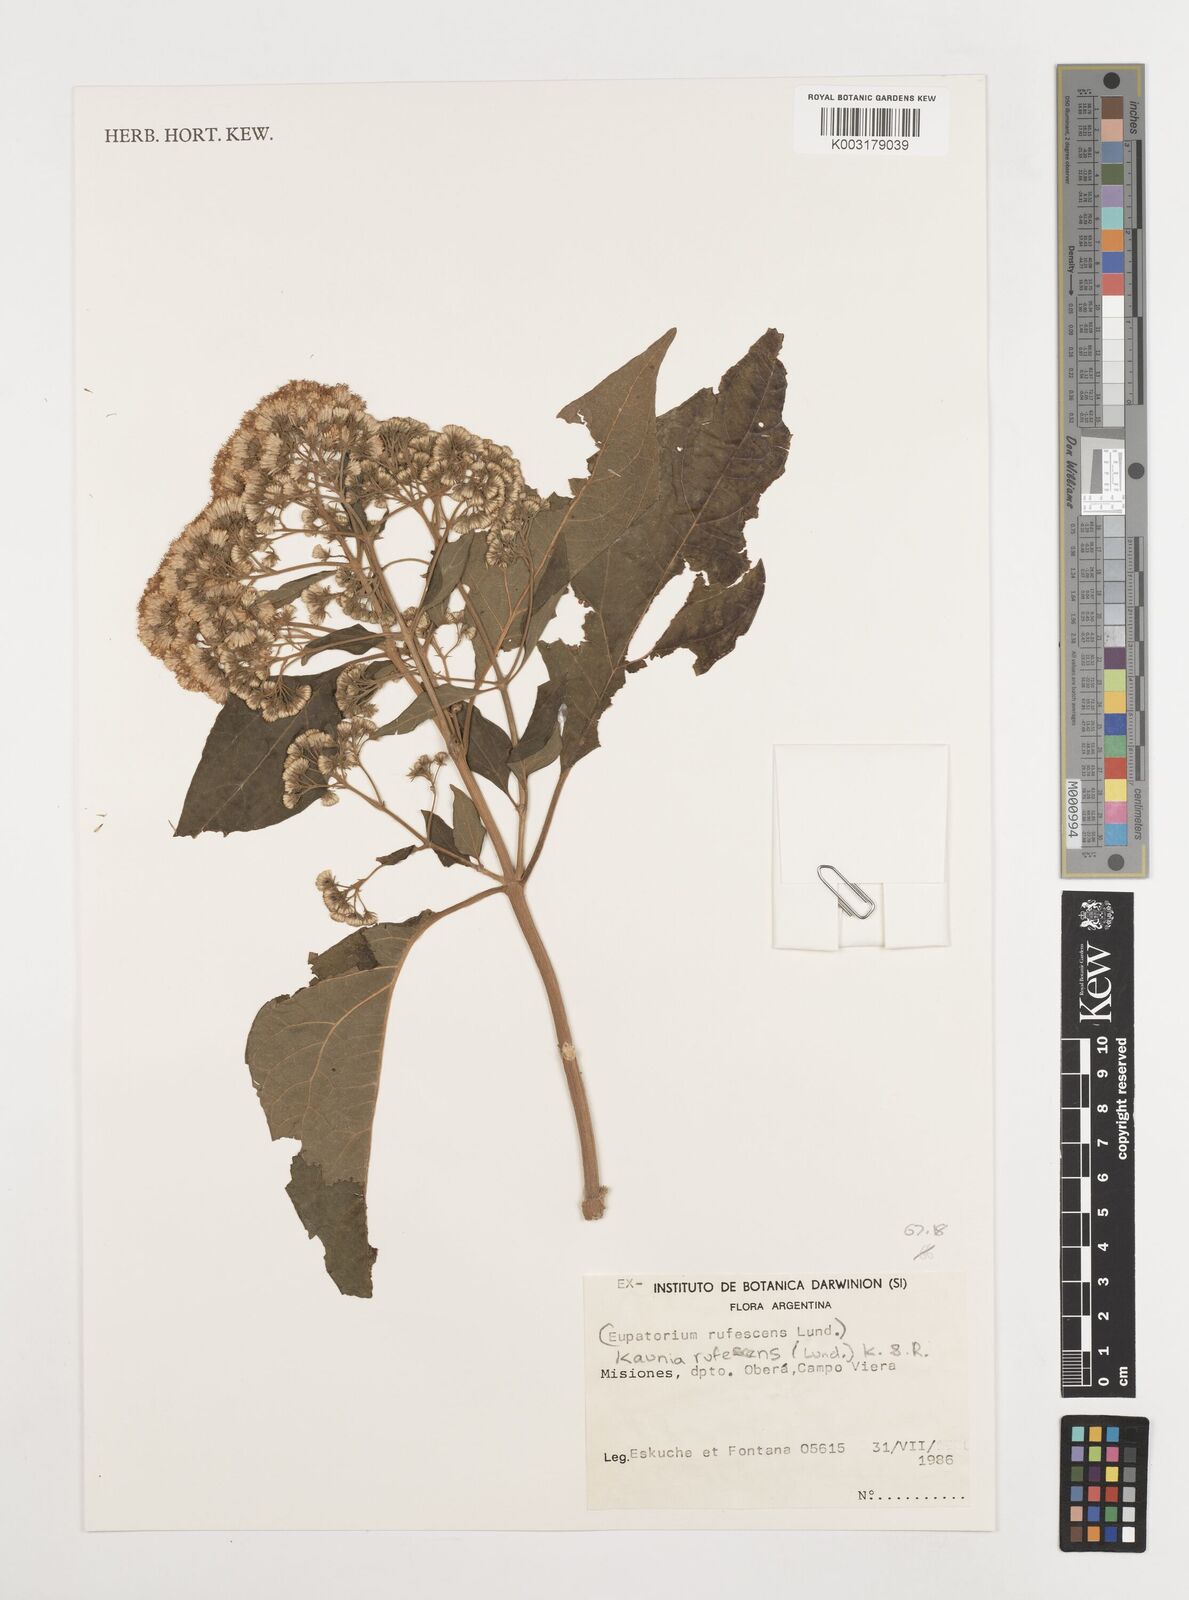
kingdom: Plantae
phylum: Tracheophyta
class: Magnoliopsida
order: Asterales
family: Asteraceae
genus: Kaunia
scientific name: Kaunia rufescens
